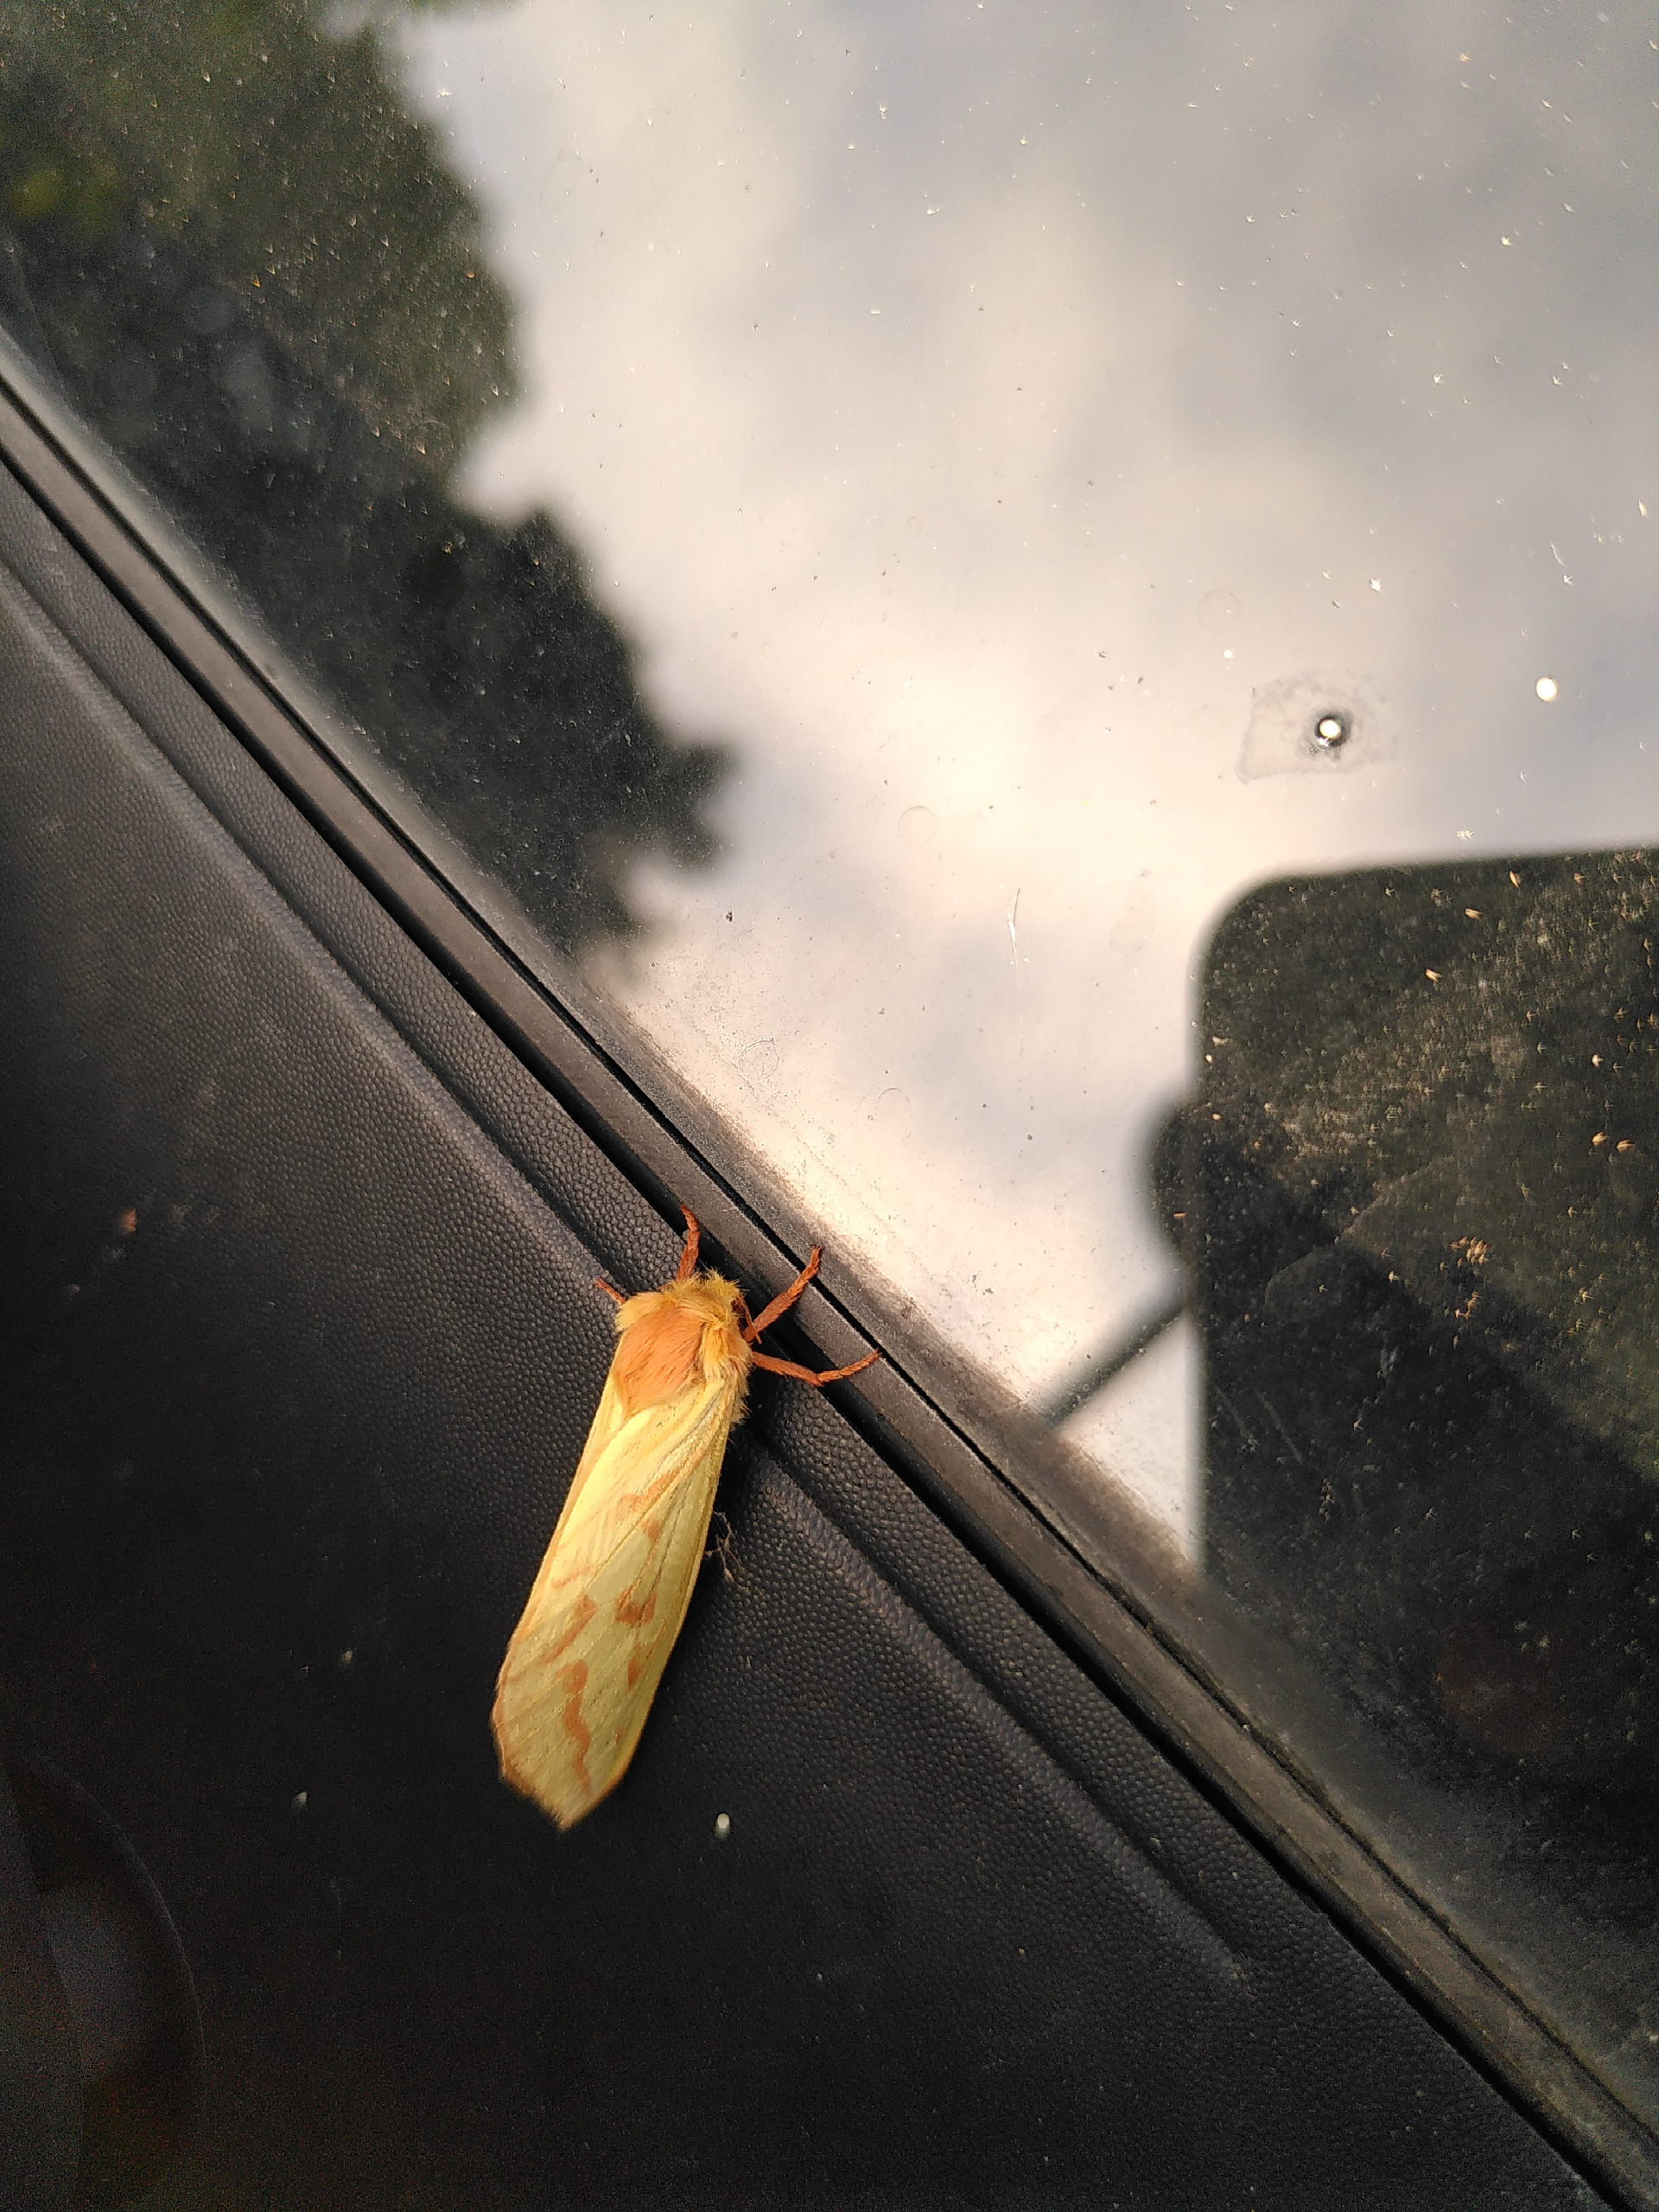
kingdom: Animalia
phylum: Arthropoda
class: Insecta
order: Lepidoptera
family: Hepialidae
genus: Hepialus
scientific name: Hepialus humuli
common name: Humlerodæder
